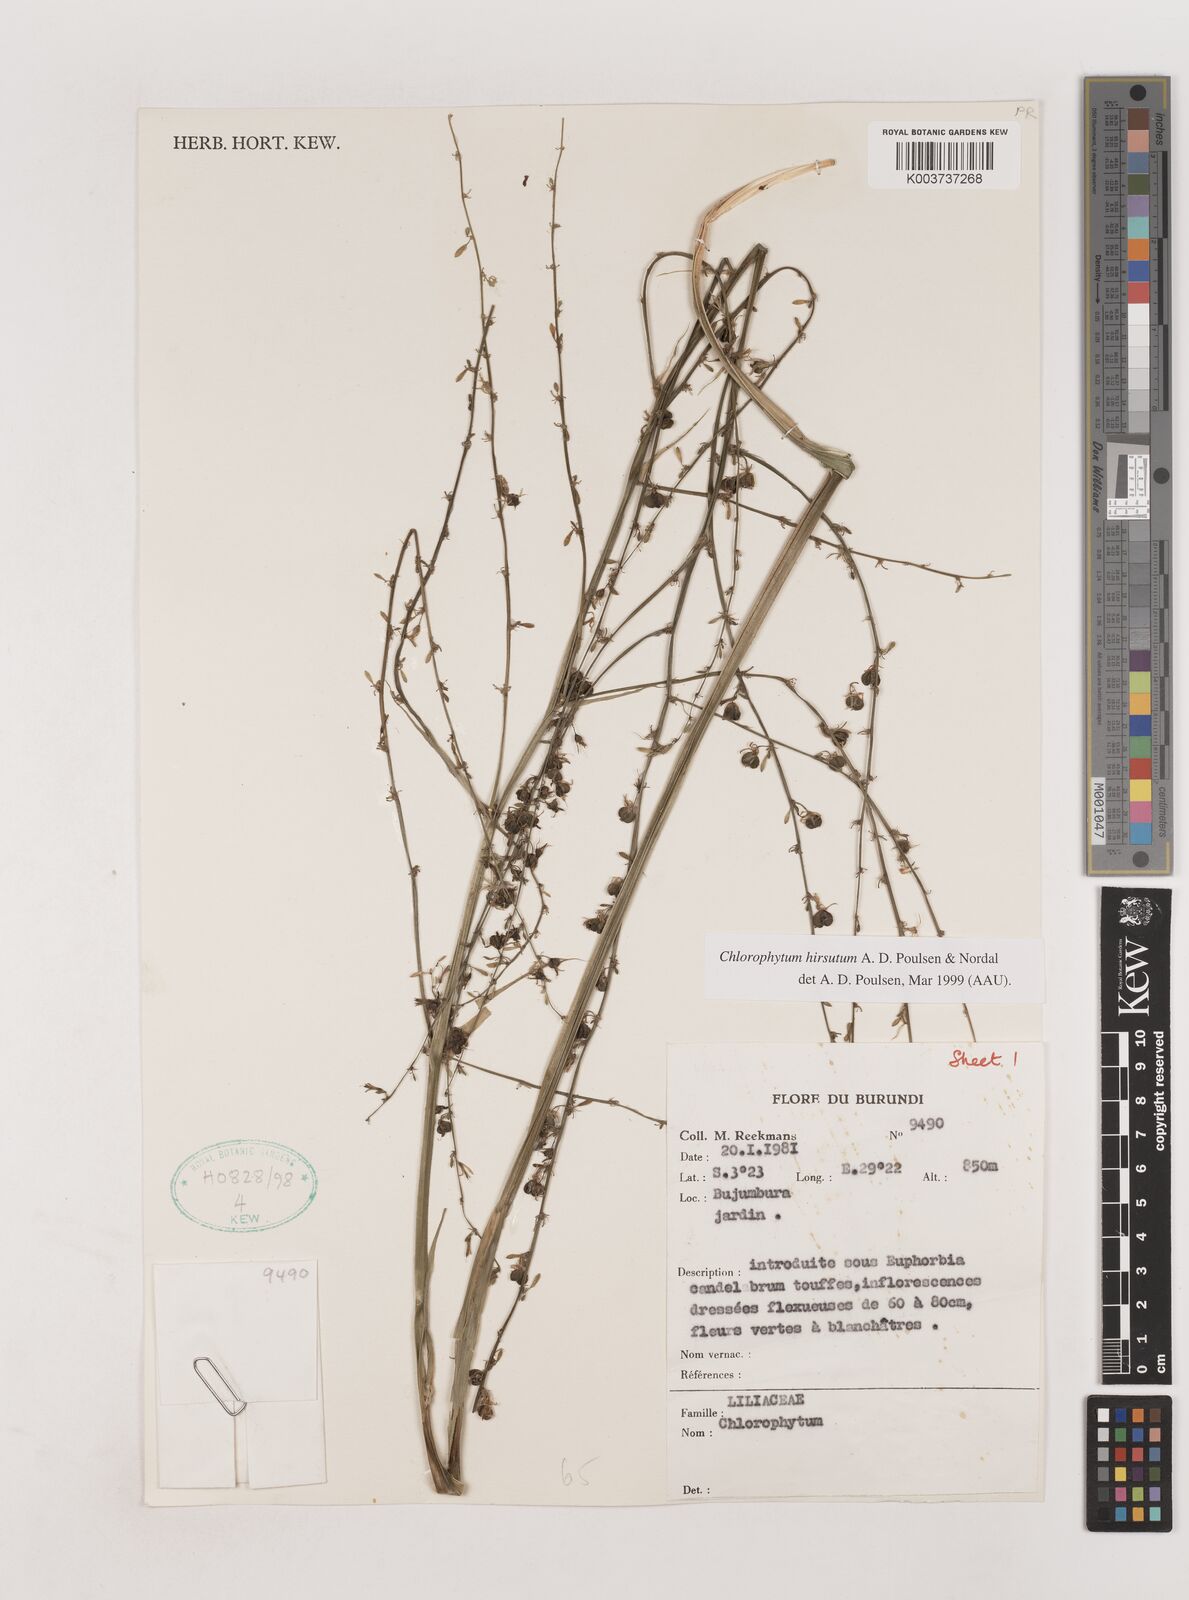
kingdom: Plantae
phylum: Tracheophyta
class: Liliopsida
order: Asparagales
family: Asparagaceae
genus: Chlorophytum
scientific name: Chlorophytum hirsutum
